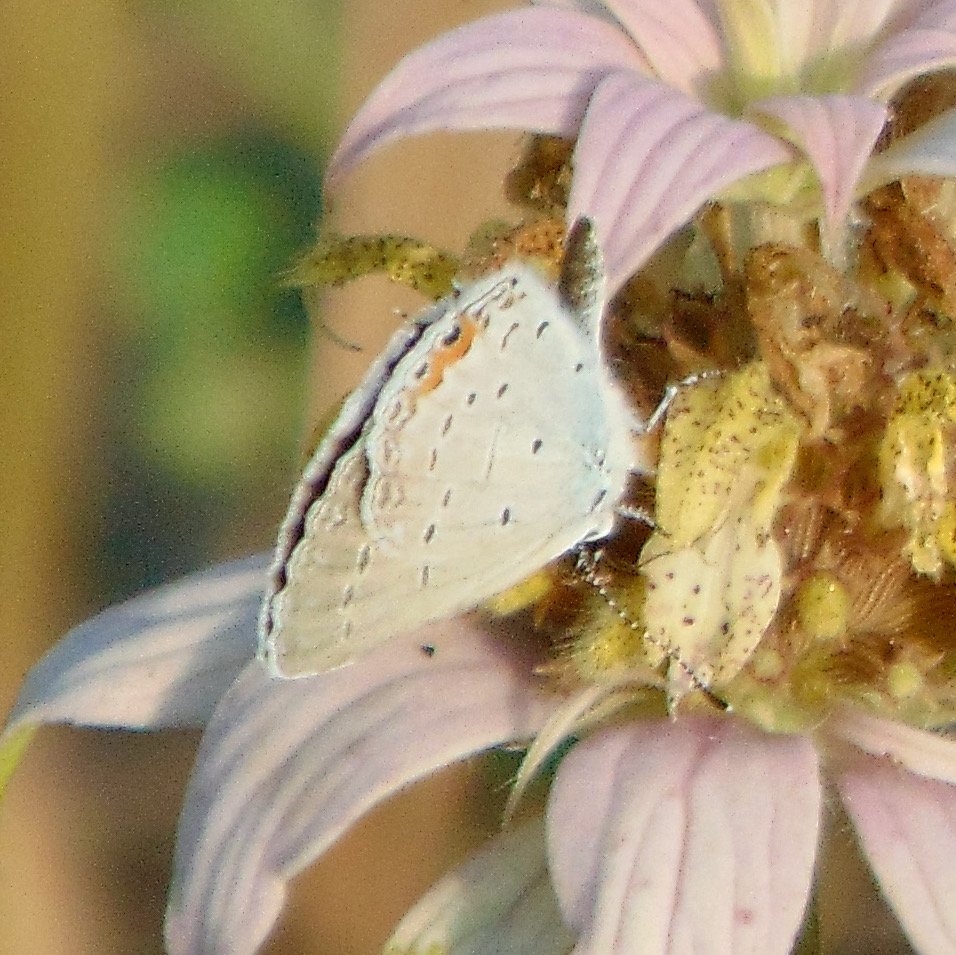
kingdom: Animalia
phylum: Arthropoda
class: Insecta
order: Lepidoptera
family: Lycaenidae
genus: Elkalyce
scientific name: Elkalyce comyntas
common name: Eastern Tailed-Blue
